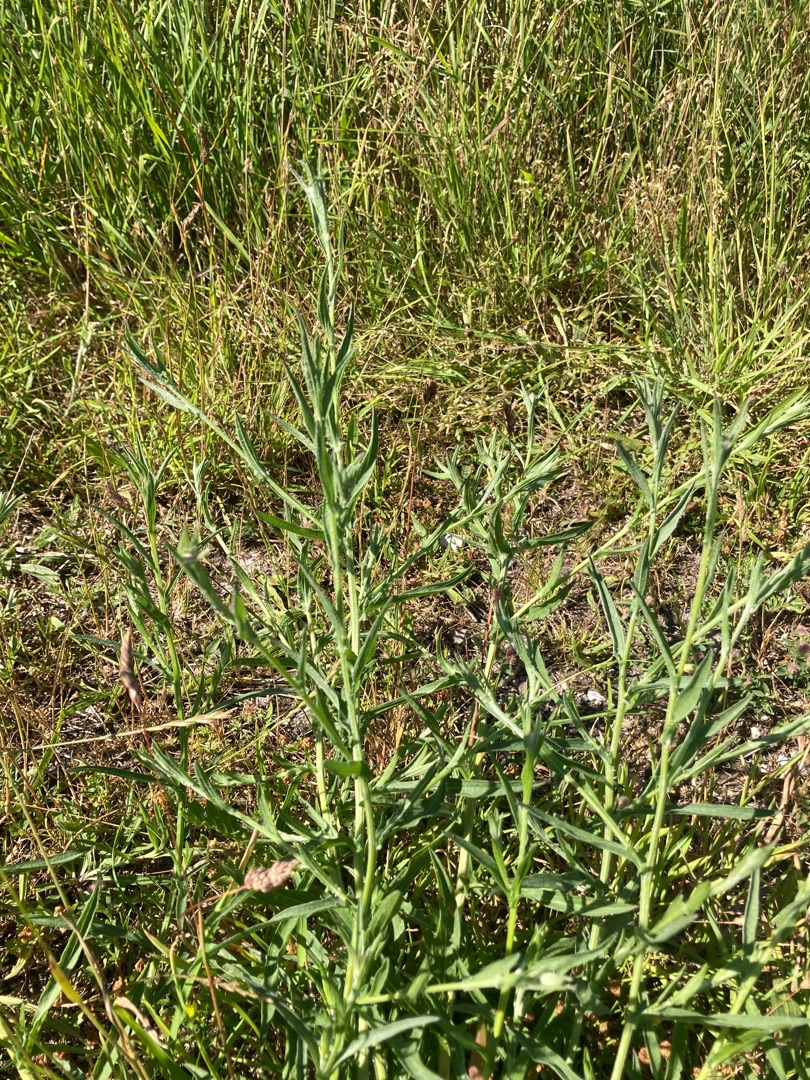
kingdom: Plantae
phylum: Tracheophyta
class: Magnoliopsida
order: Asterales
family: Asteraceae
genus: Centaurea
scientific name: Centaurea jacea
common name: Almindelig knopurt
